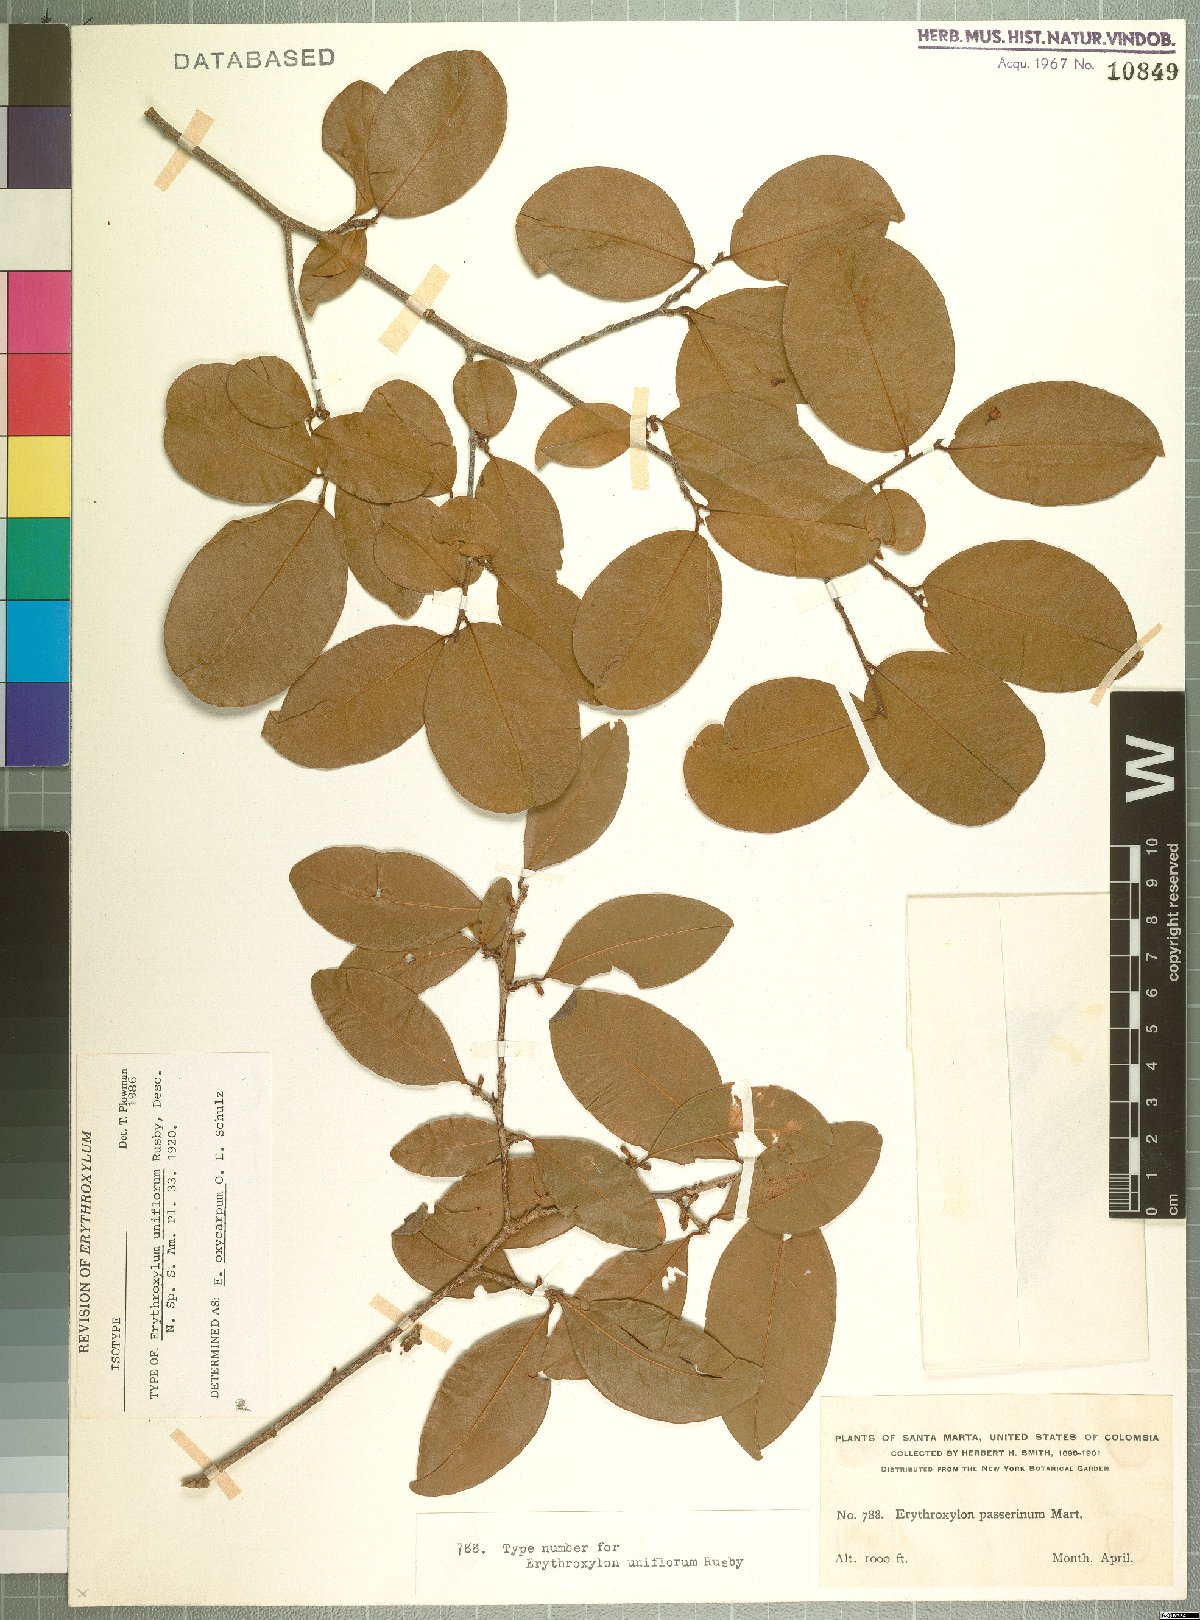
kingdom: Plantae
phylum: Tracheophyta
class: Magnoliopsida
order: Malpighiales
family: Erythroxylaceae
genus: Erythroxylum
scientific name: Erythroxylum oxycarpum
